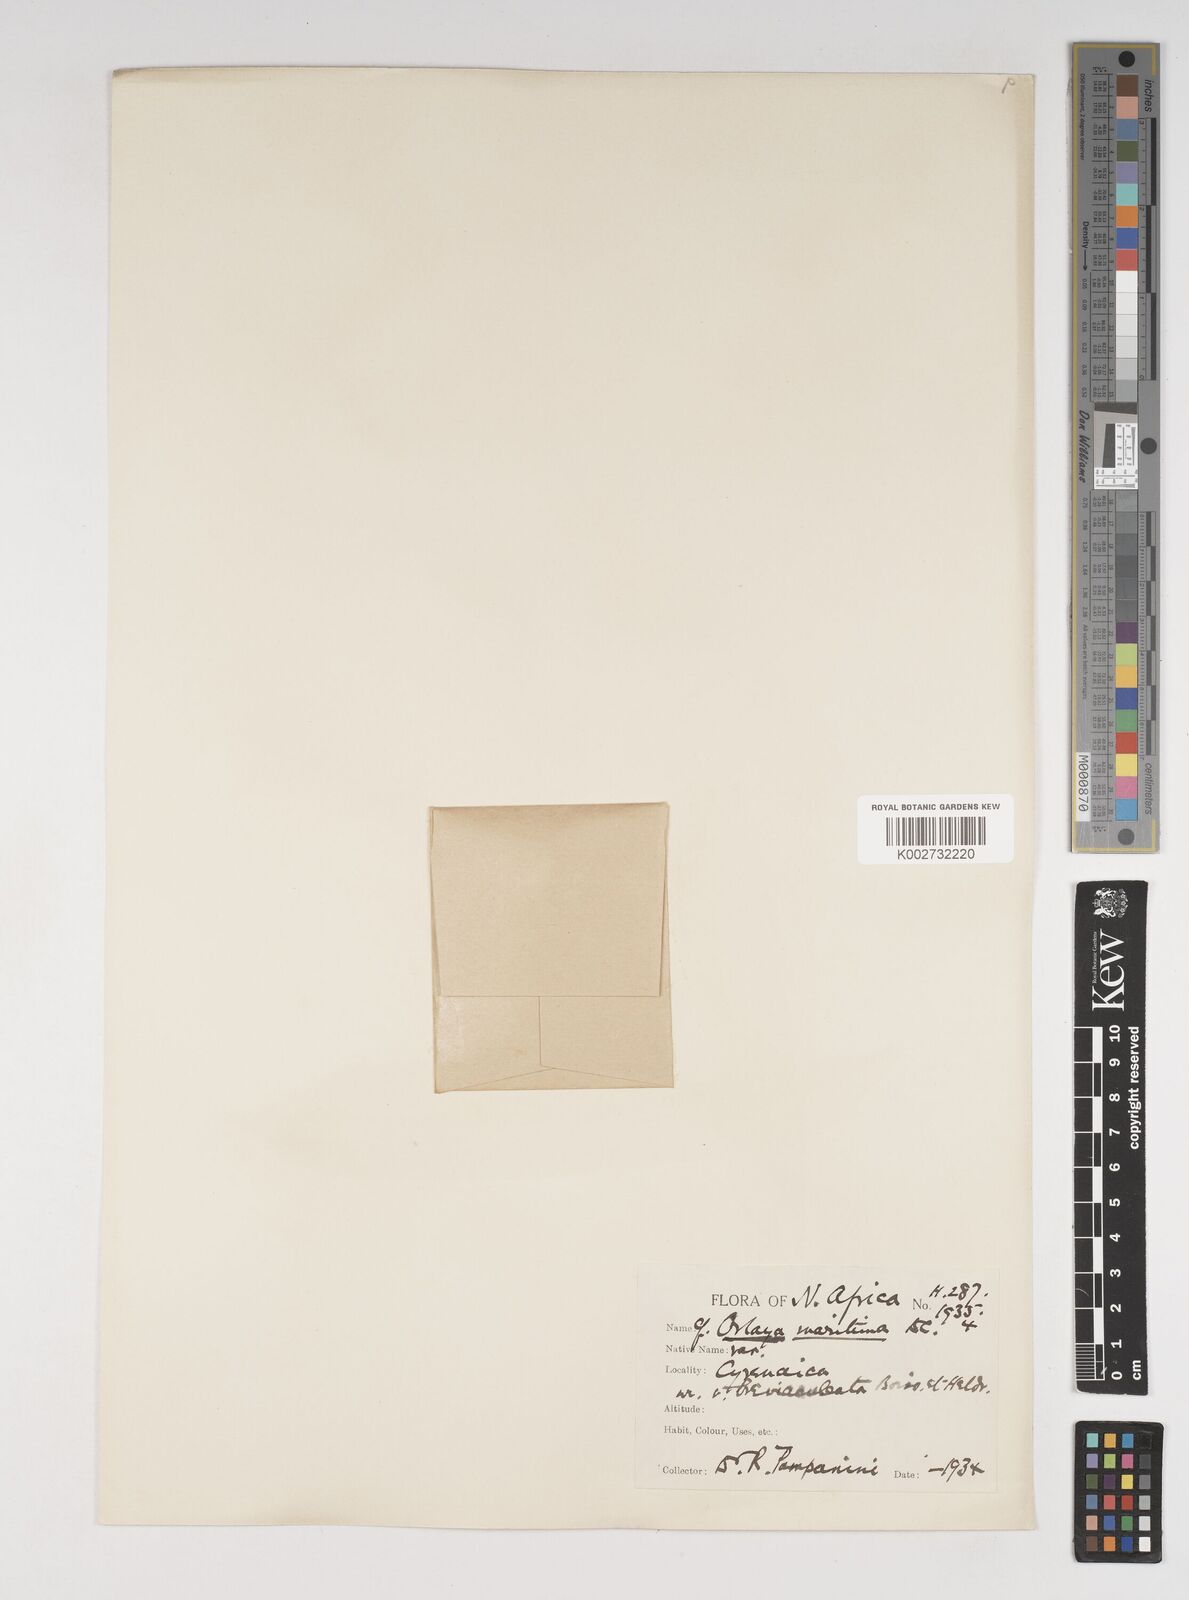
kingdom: Plantae
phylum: Tracheophyta
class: Magnoliopsida
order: Apiales
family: Apiaceae
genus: Daucus
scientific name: Daucus pumilus
